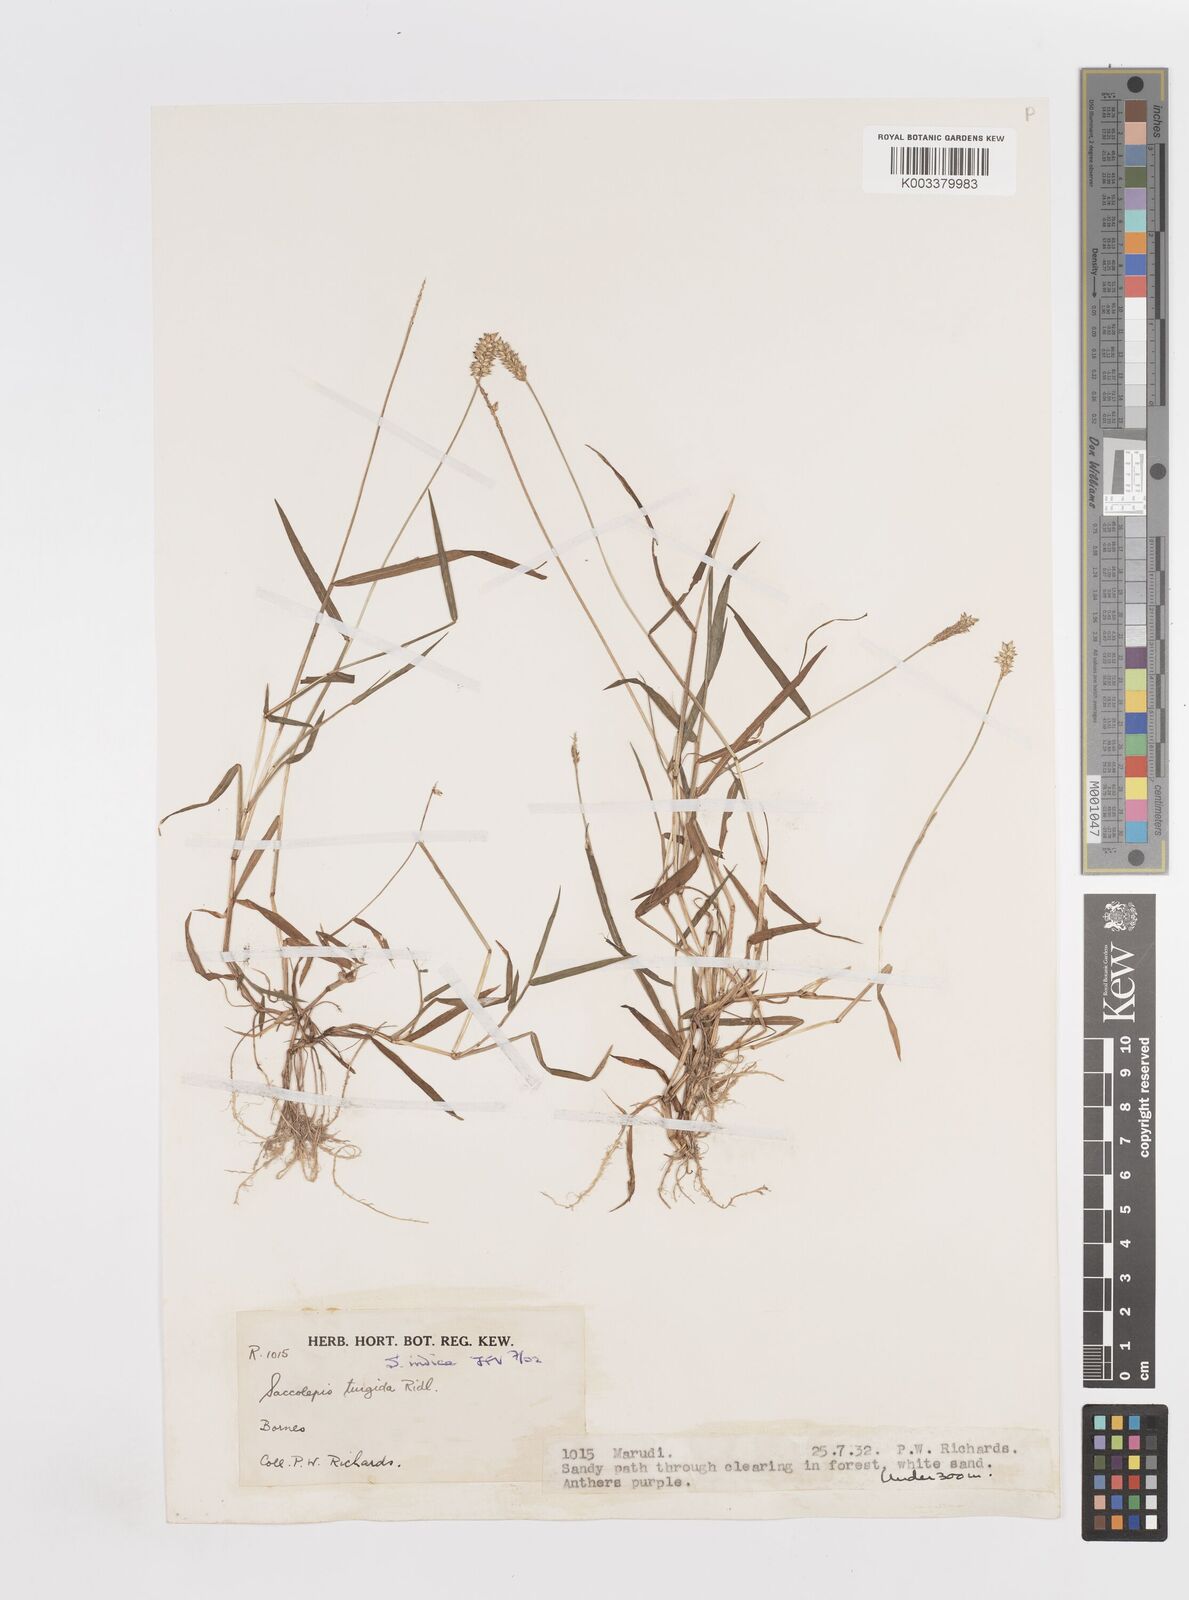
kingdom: Plantae
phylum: Tracheophyta
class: Liliopsida
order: Poales
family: Poaceae
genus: Sacciolepis
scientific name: Sacciolepis indica
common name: Glenwoodgrass
